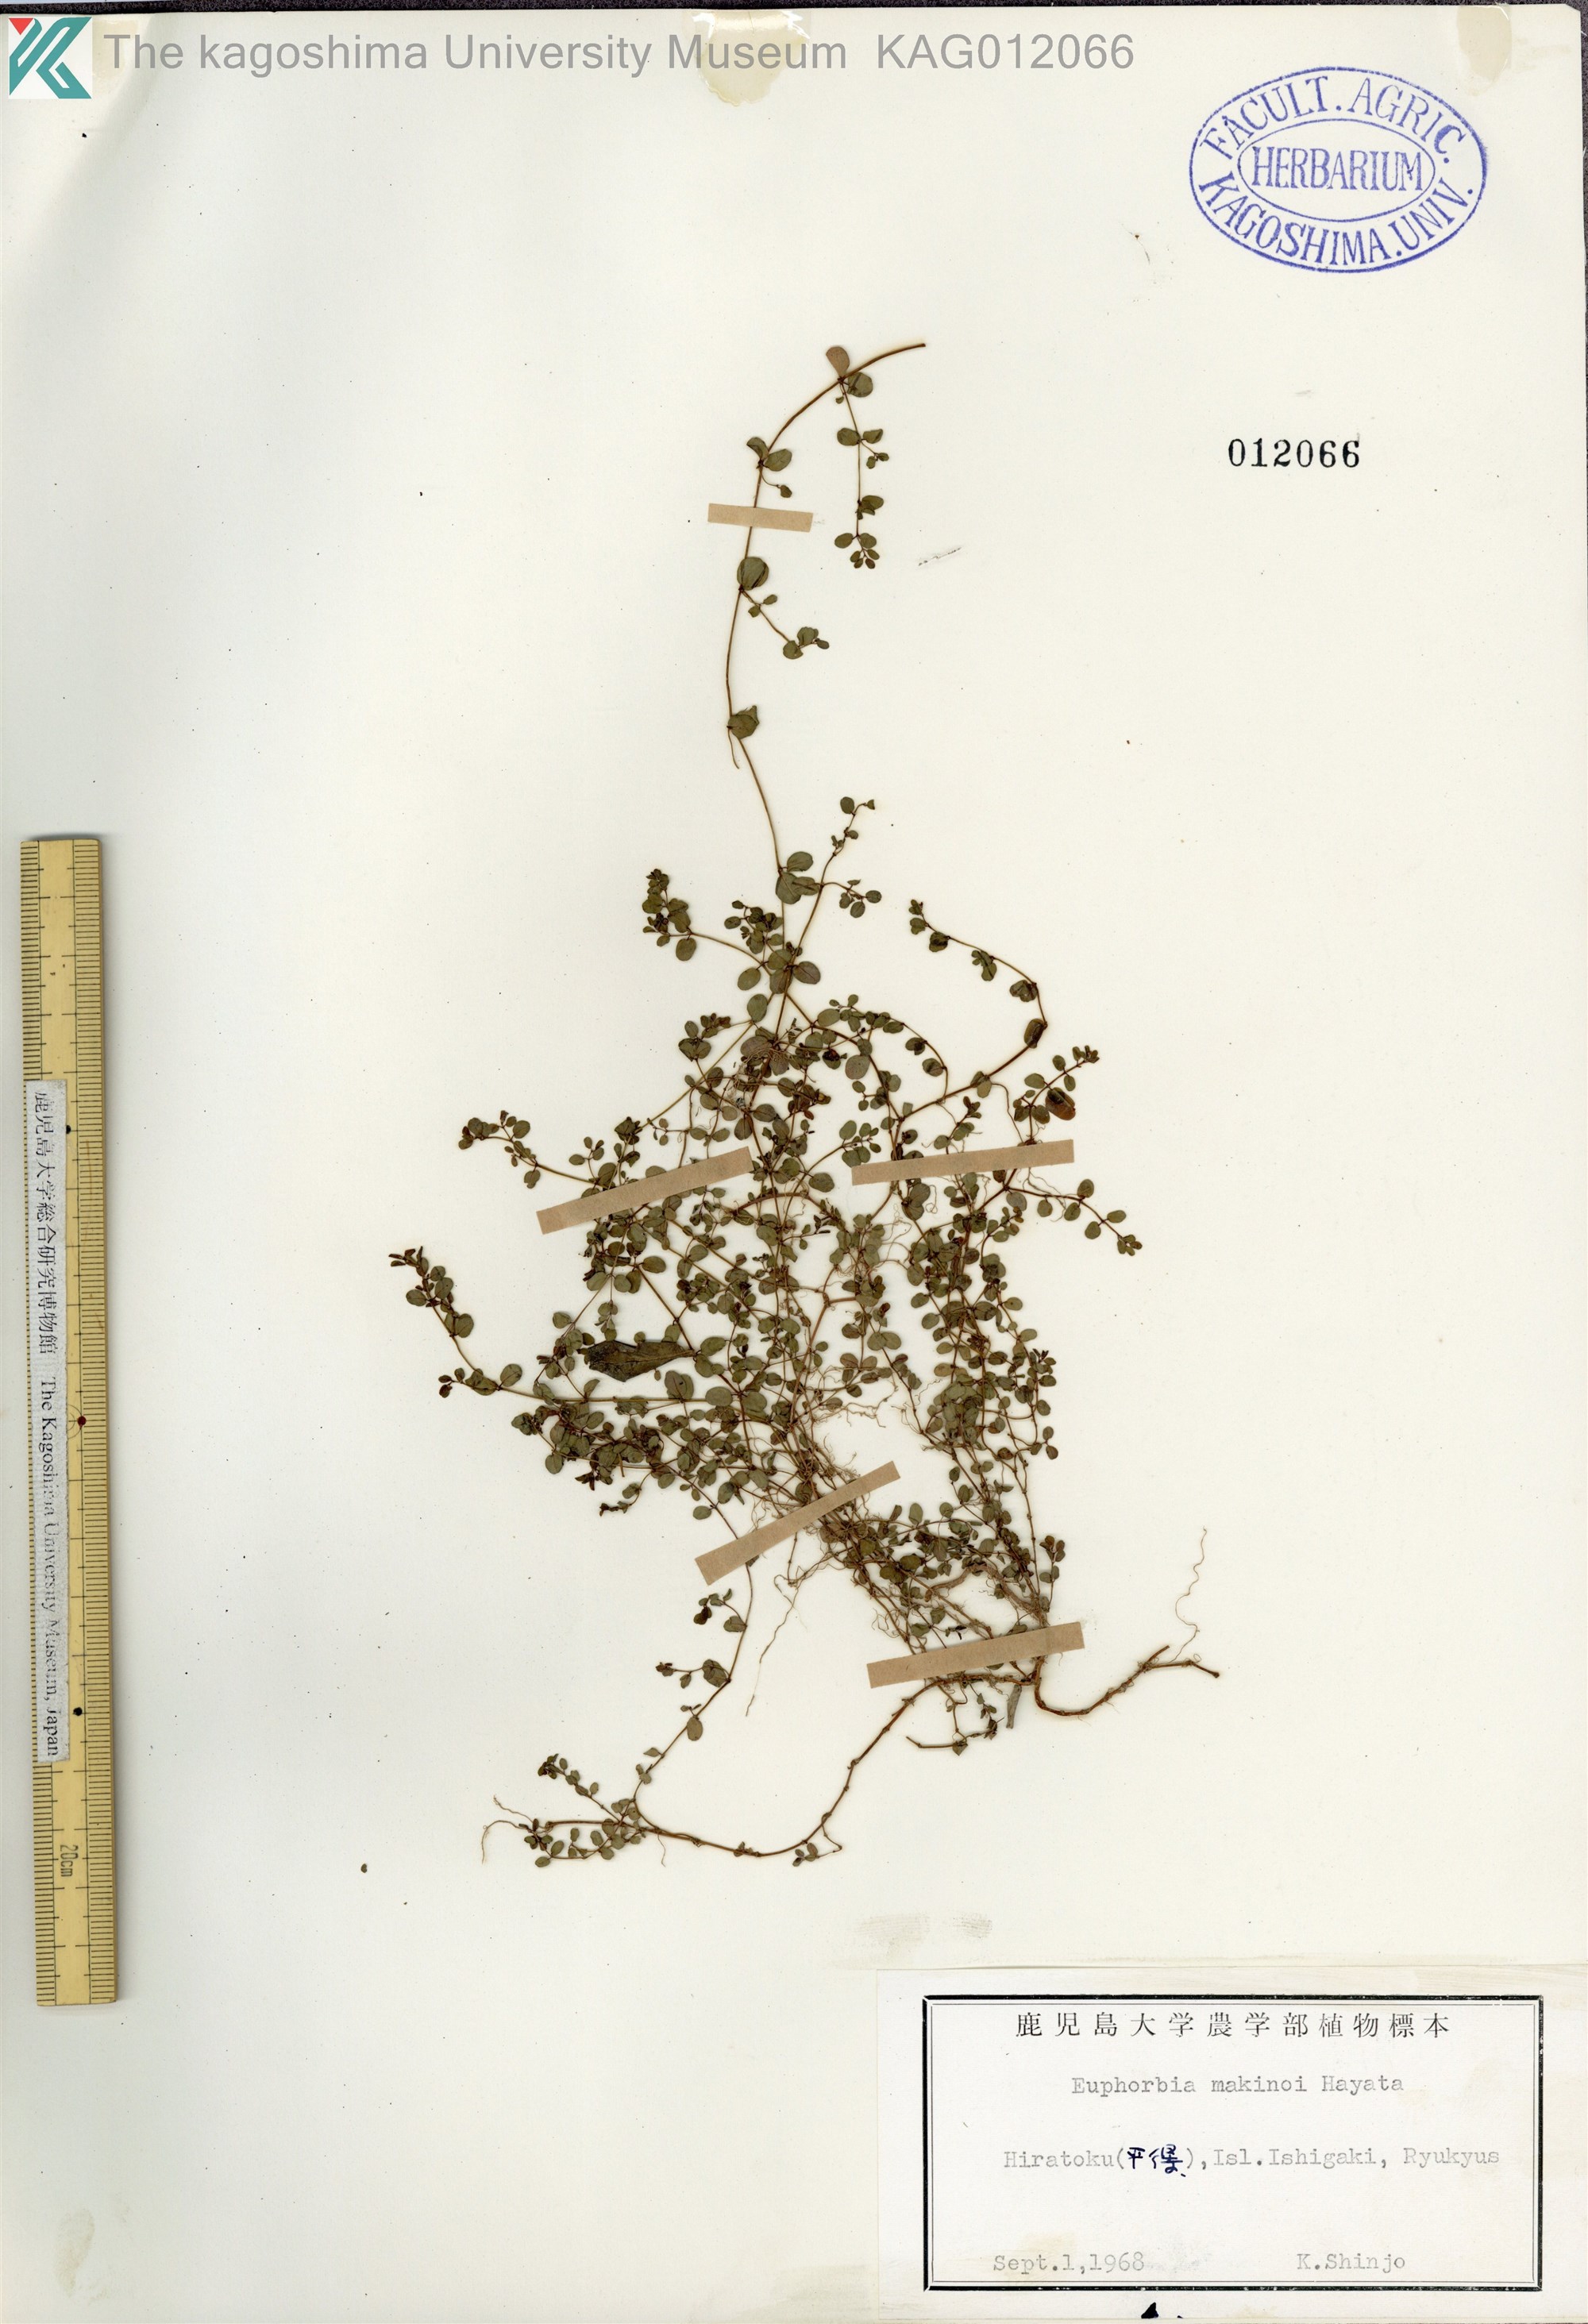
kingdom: Plantae
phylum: Tracheophyta
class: Magnoliopsida
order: Malpighiales
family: Euphorbiaceae
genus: Euphorbia
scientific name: Euphorbia makinoi
